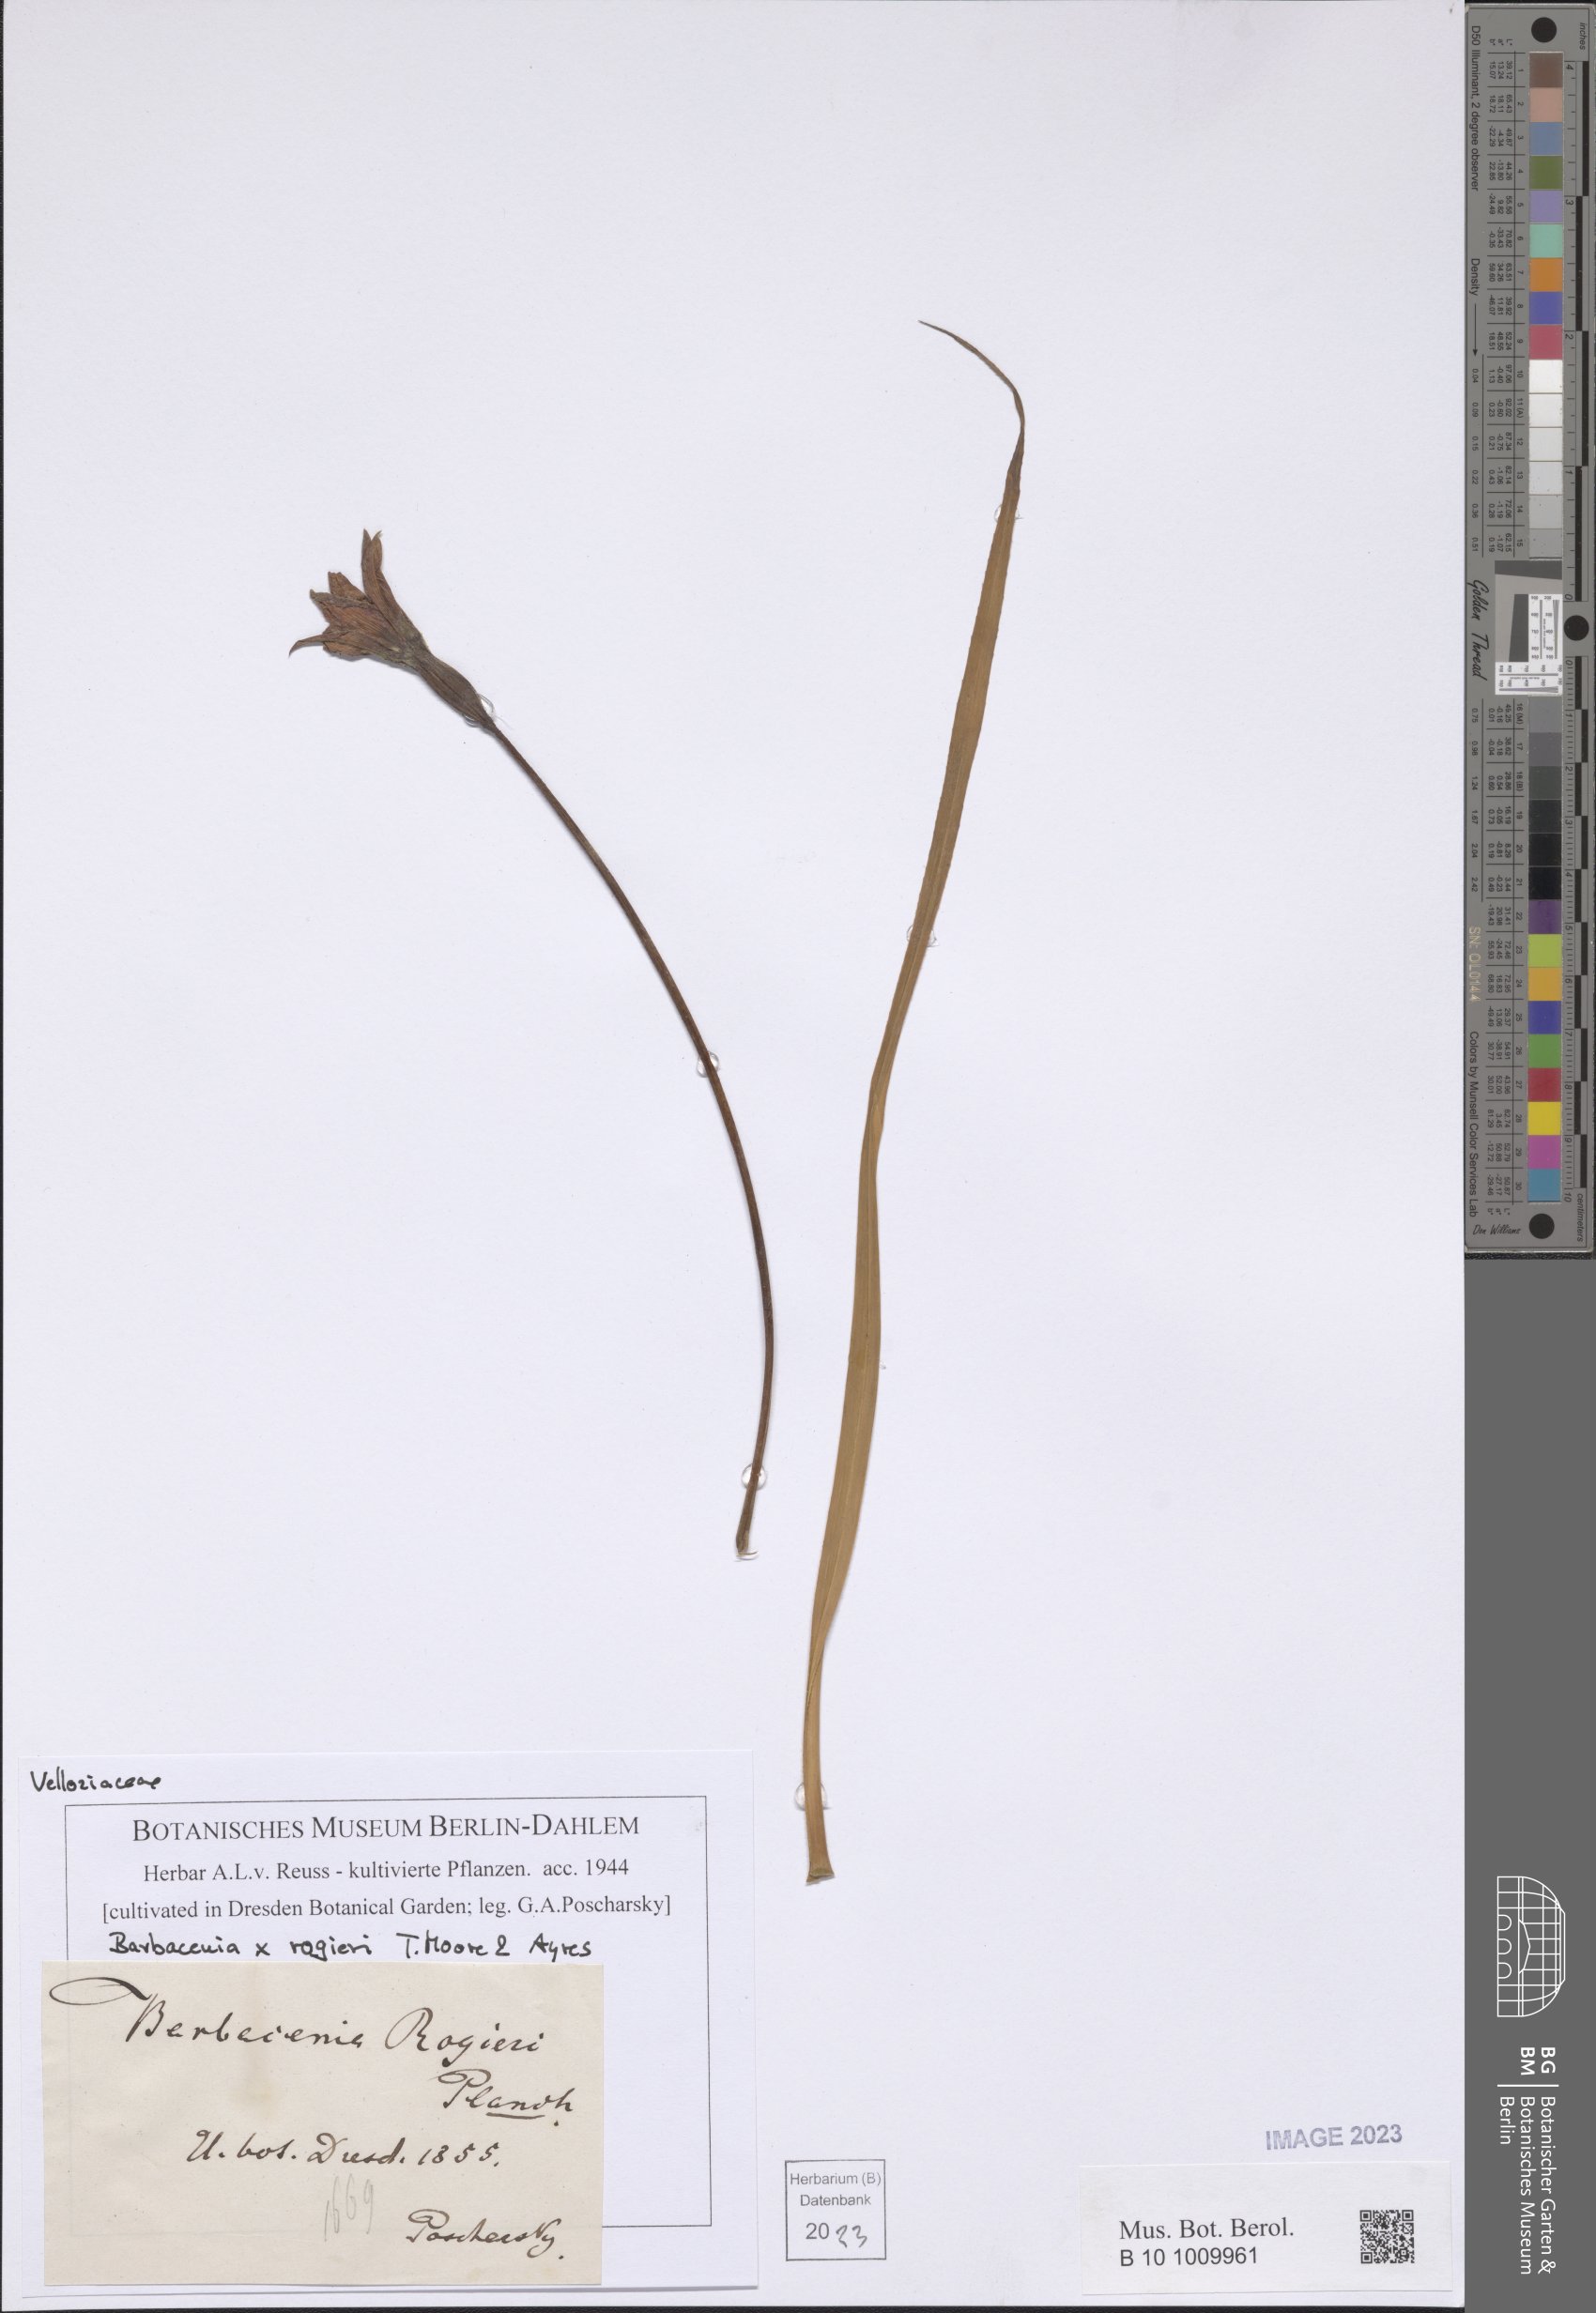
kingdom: Plantae
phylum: Tracheophyta
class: Liliopsida
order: Pandanales
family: Velloziaceae
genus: Barbacenia
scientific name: Barbacenia rogieri
